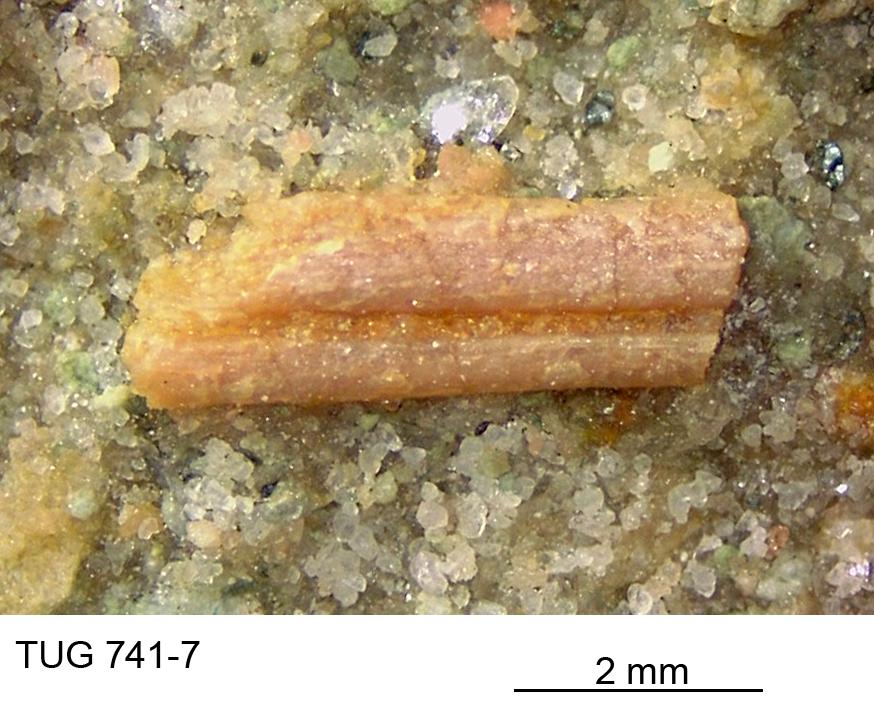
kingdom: Animalia
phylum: Chordata
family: Acanthodidae
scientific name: Acanthodidae
